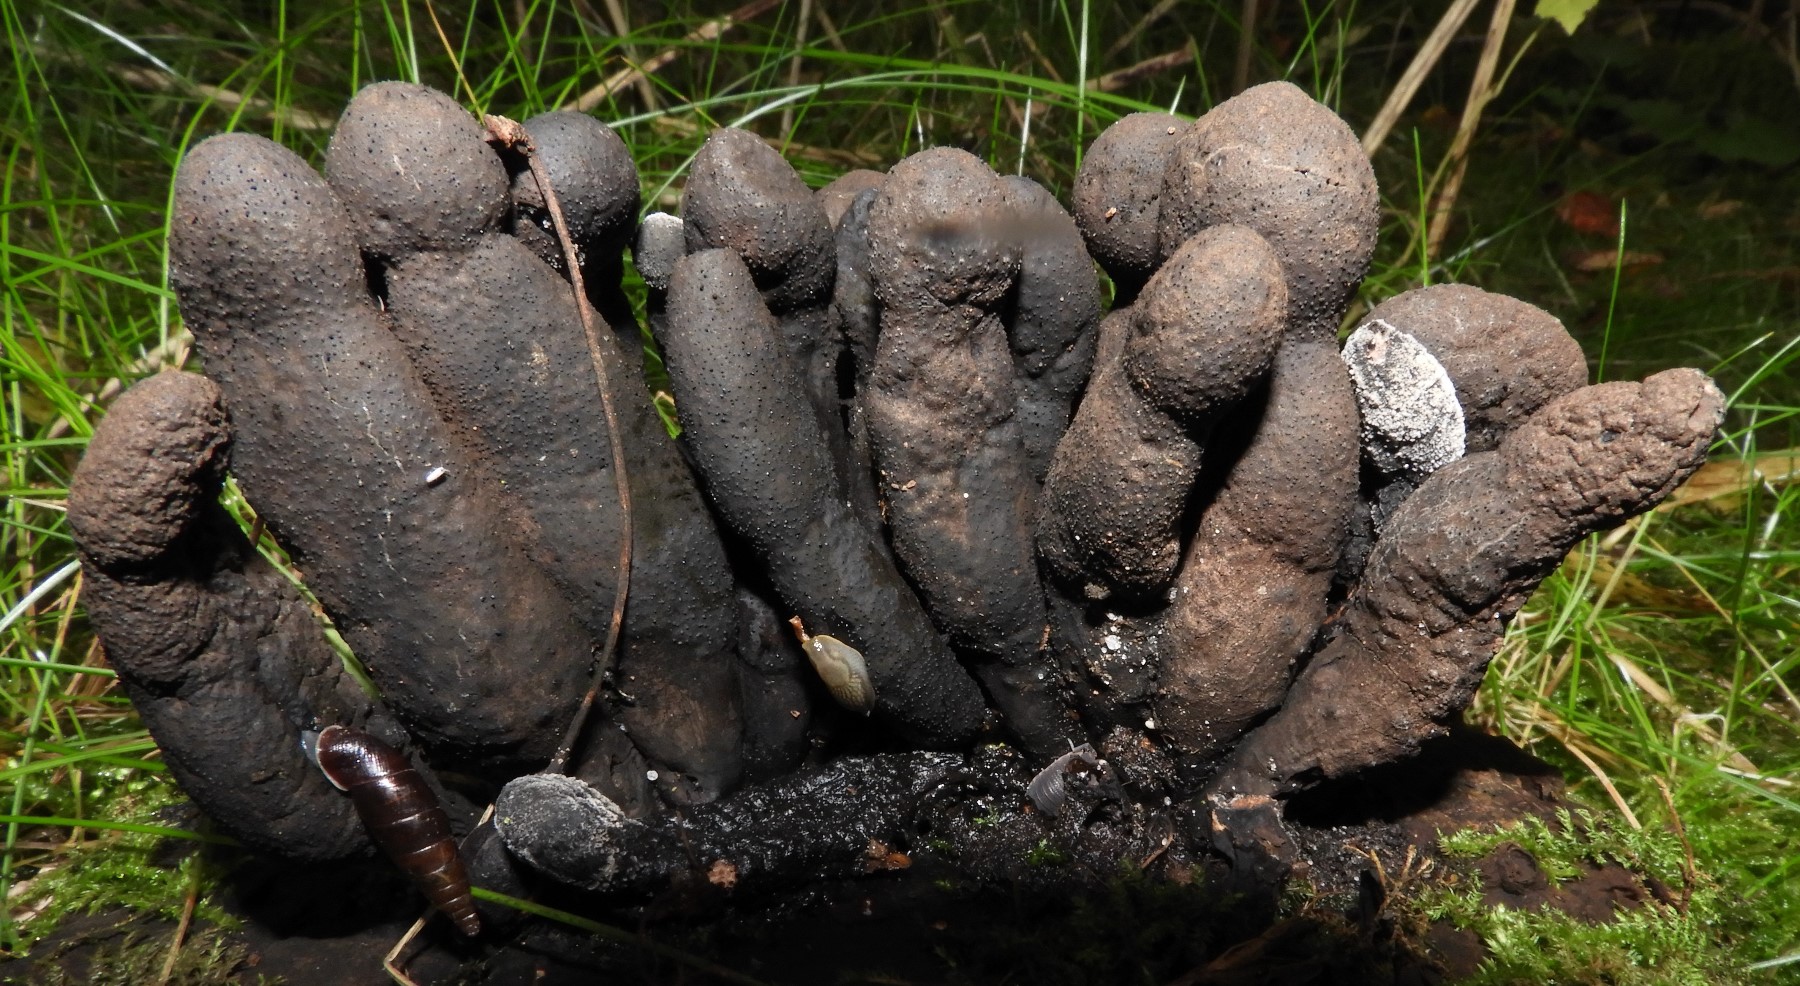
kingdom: Fungi
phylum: Ascomycota
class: Sordariomycetes
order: Xylariales
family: Xylariaceae
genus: Xylaria
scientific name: Xylaria polymorpha
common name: kølle-stødsvamp
